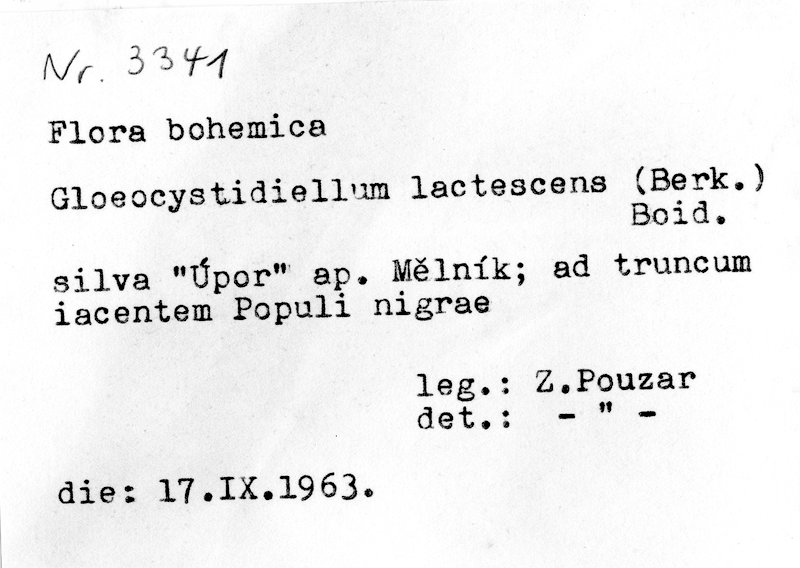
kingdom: Fungi
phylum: Basidiomycota
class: Agaricomycetes
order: Russulales
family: Peniophoraceae
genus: Gloiothele
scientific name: Gloiothele lactescens
